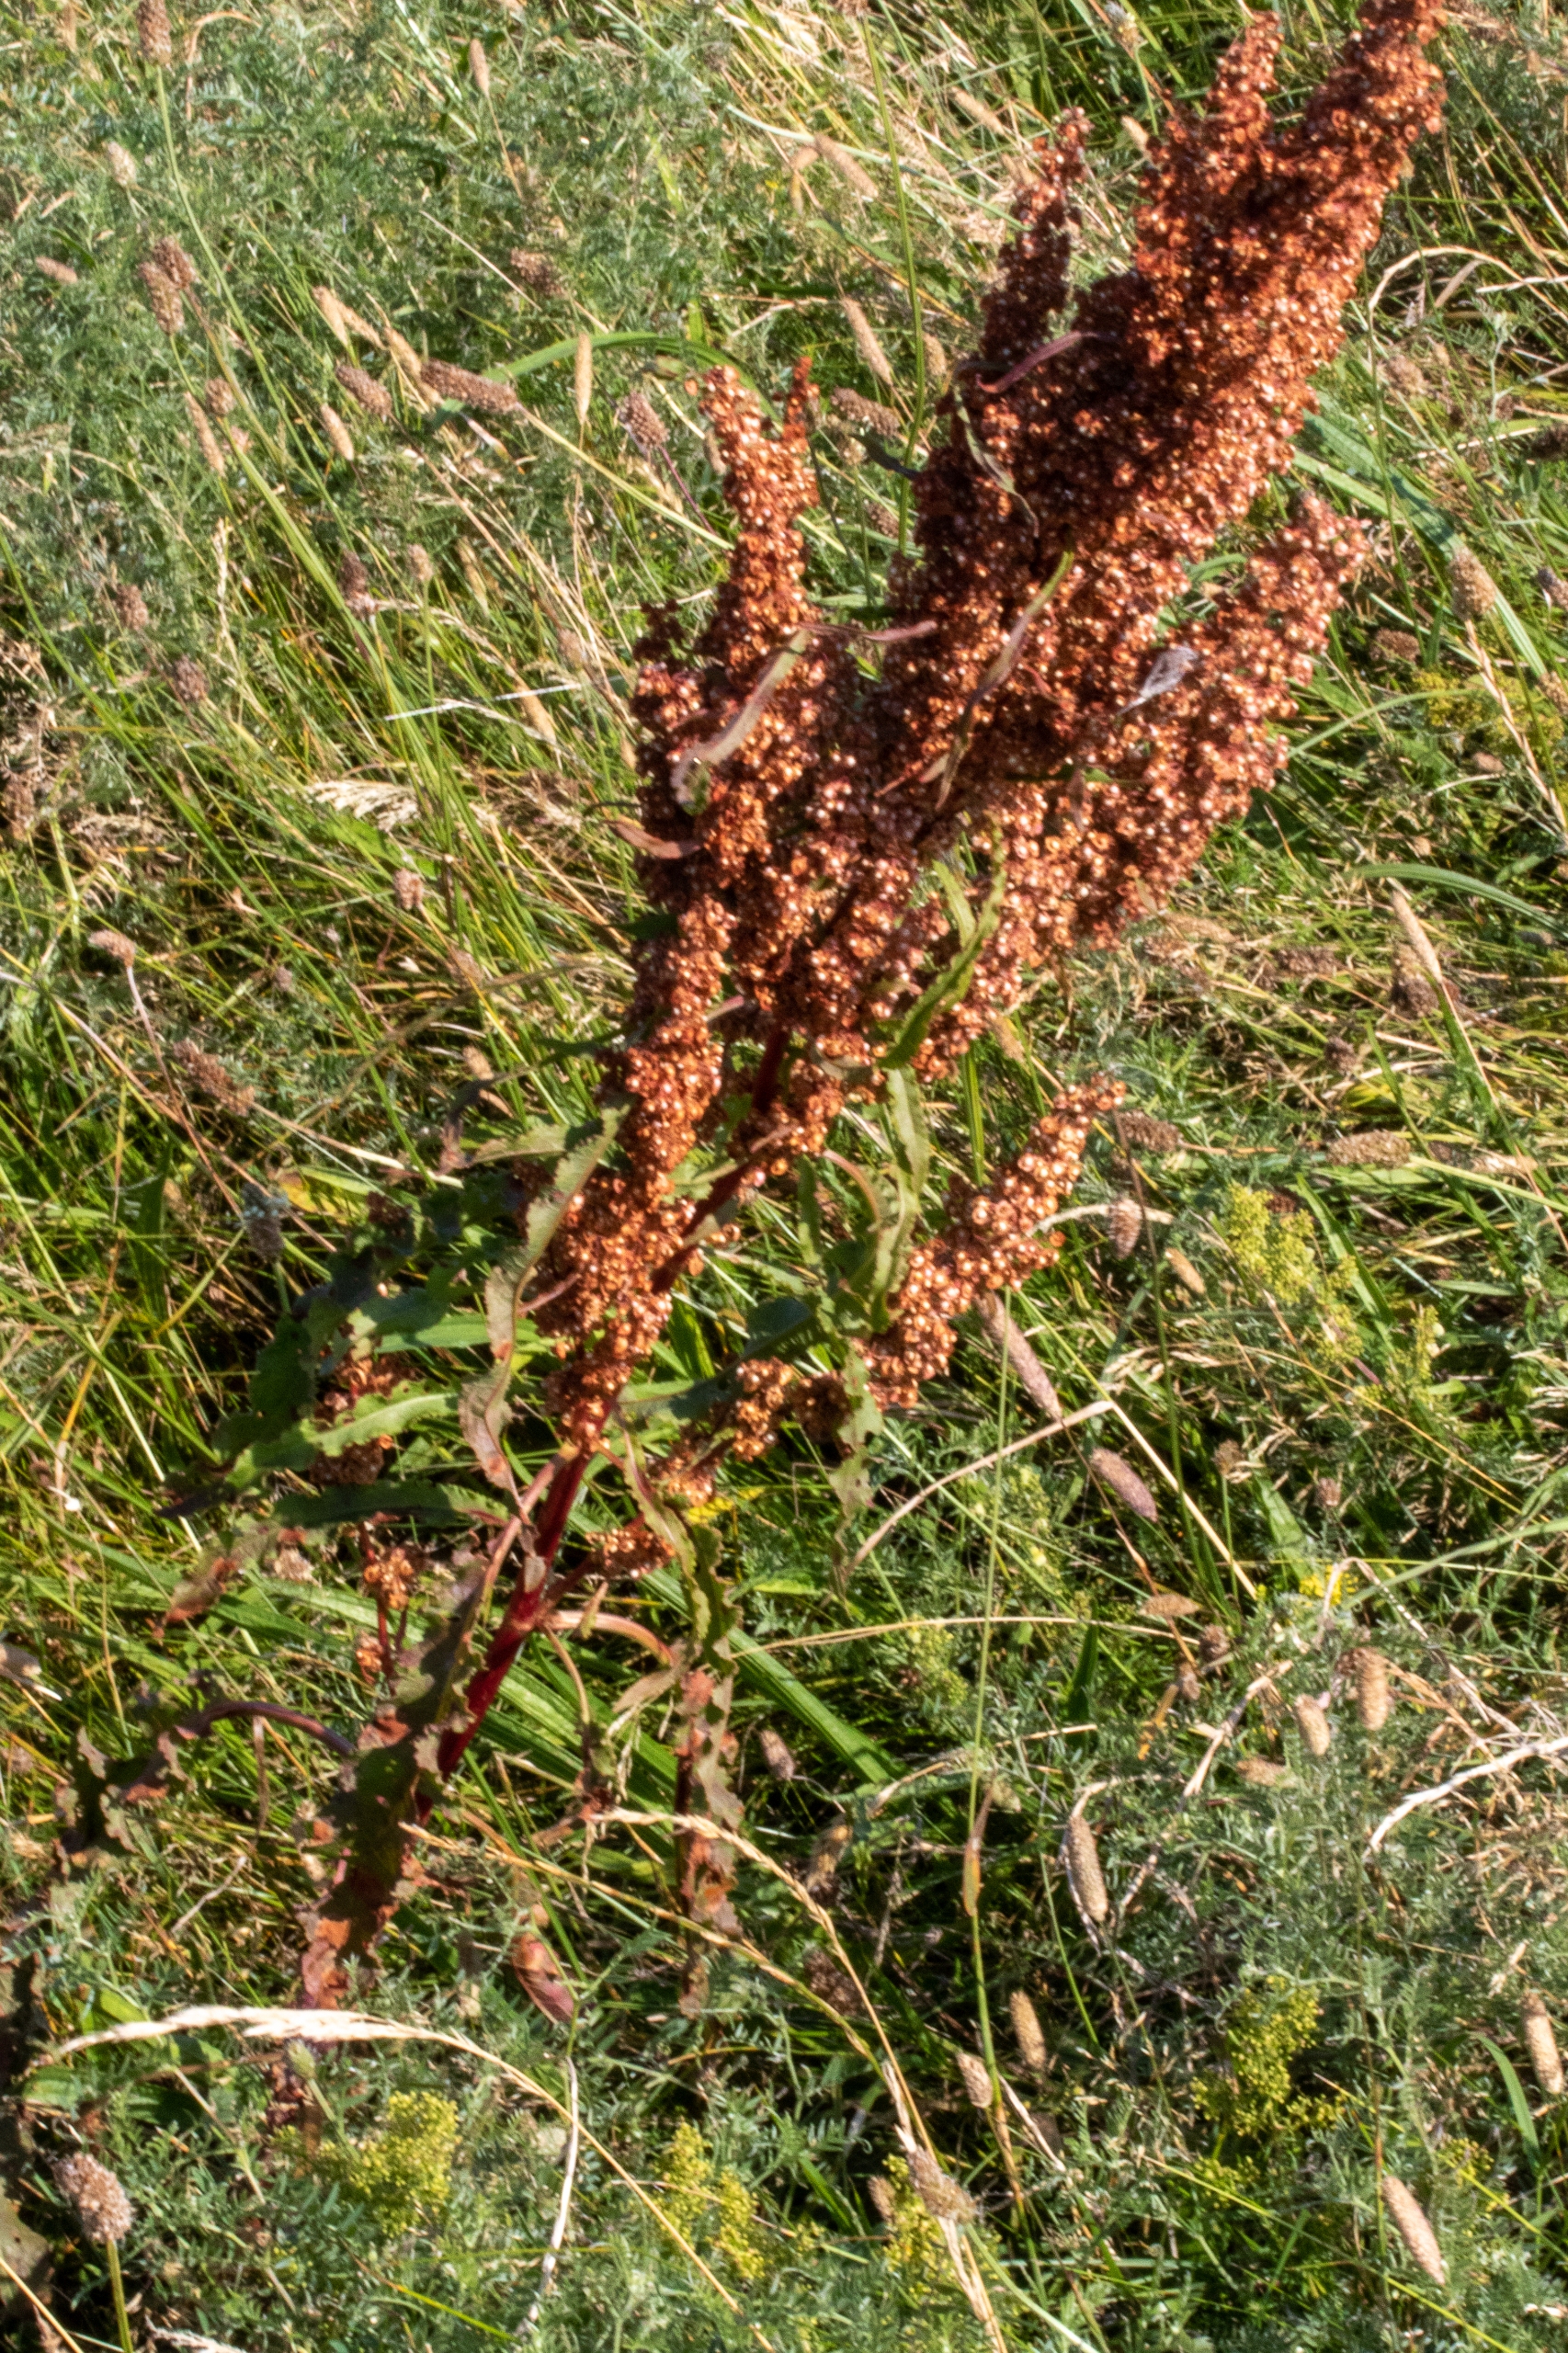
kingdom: Plantae
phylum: Tracheophyta
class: Magnoliopsida
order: Caryophyllales
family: Polygonaceae
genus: Rumex
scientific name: Rumex crispus
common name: Kruset skræppe
